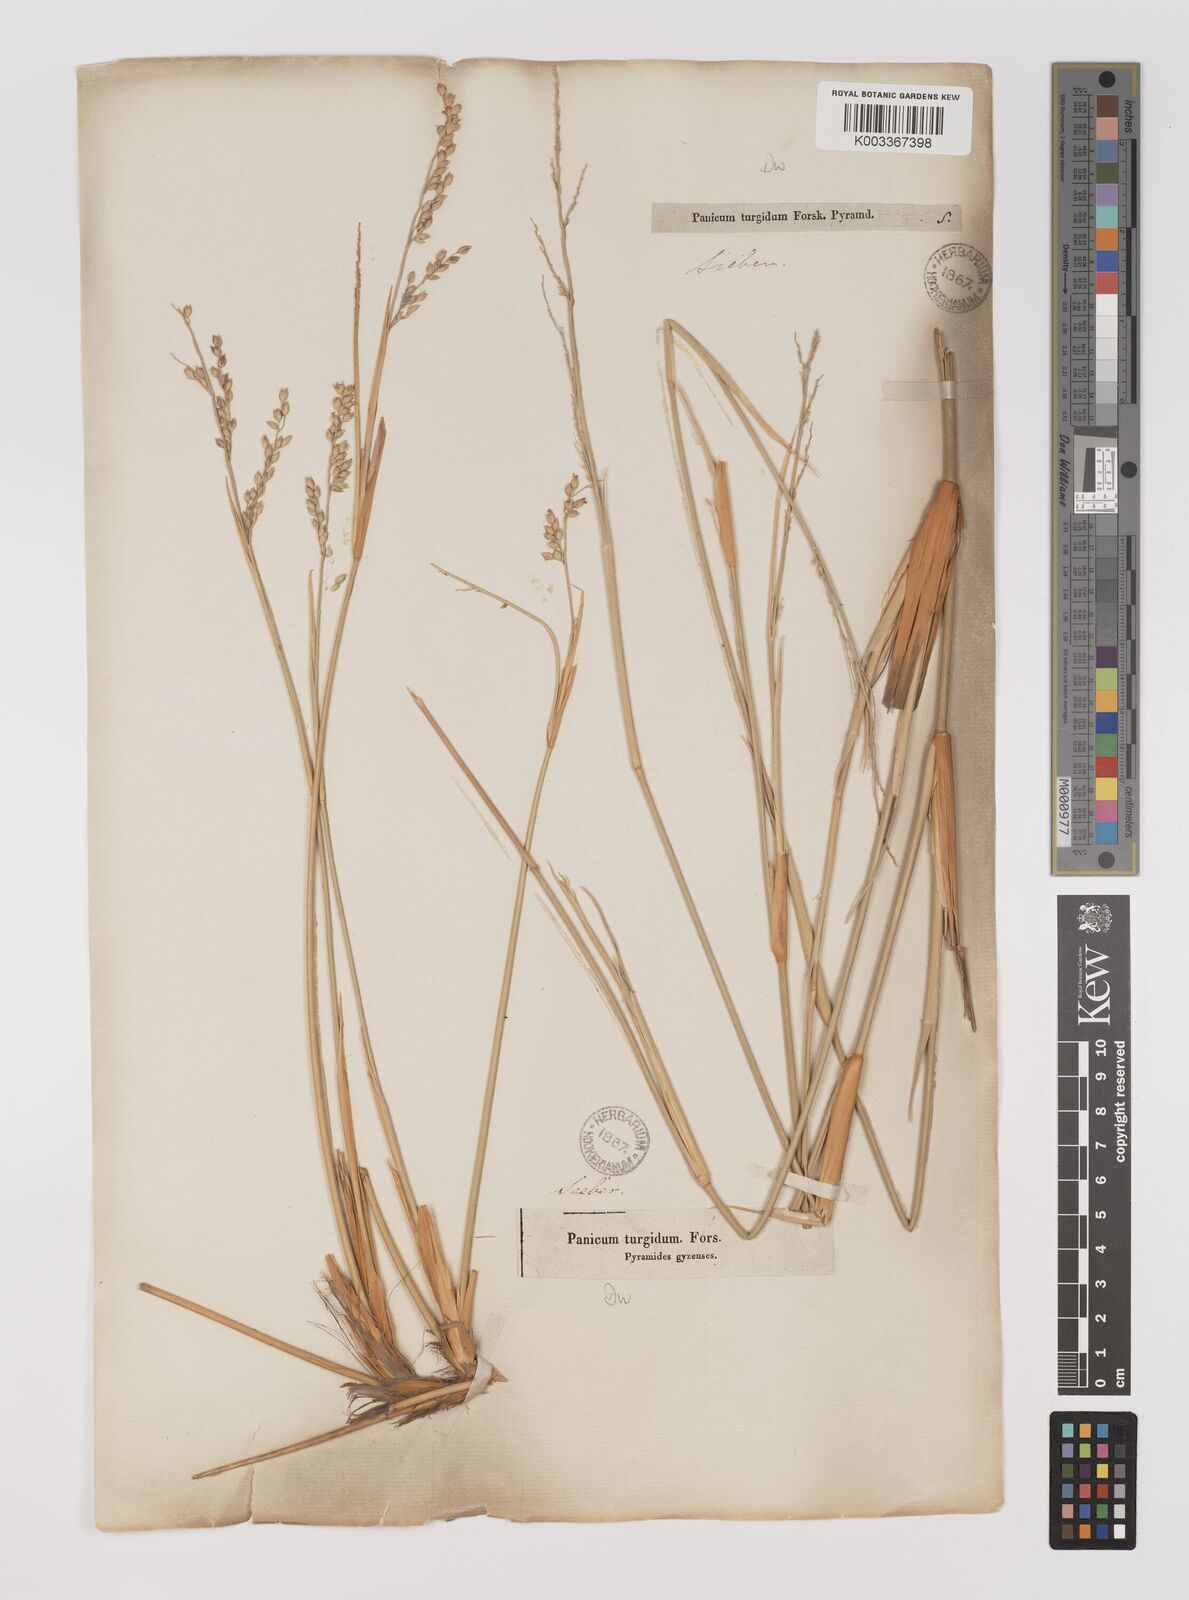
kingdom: Plantae
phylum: Tracheophyta
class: Liliopsida
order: Poales
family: Poaceae
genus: Panicum
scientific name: Panicum turgidum
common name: Desert grass
